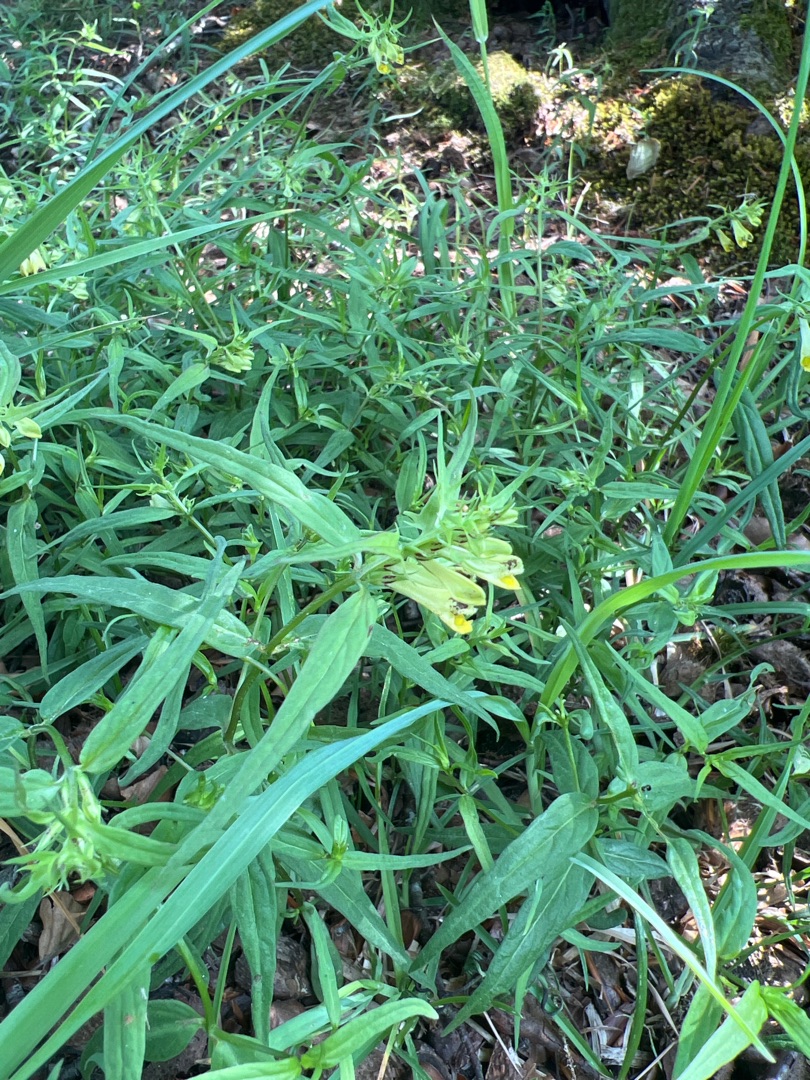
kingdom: Plantae
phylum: Tracheophyta
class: Magnoliopsida
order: Lamiales
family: Orobanchaceae
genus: Melampyrum
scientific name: Melampyrum pratense
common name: Almindelig kohvede
